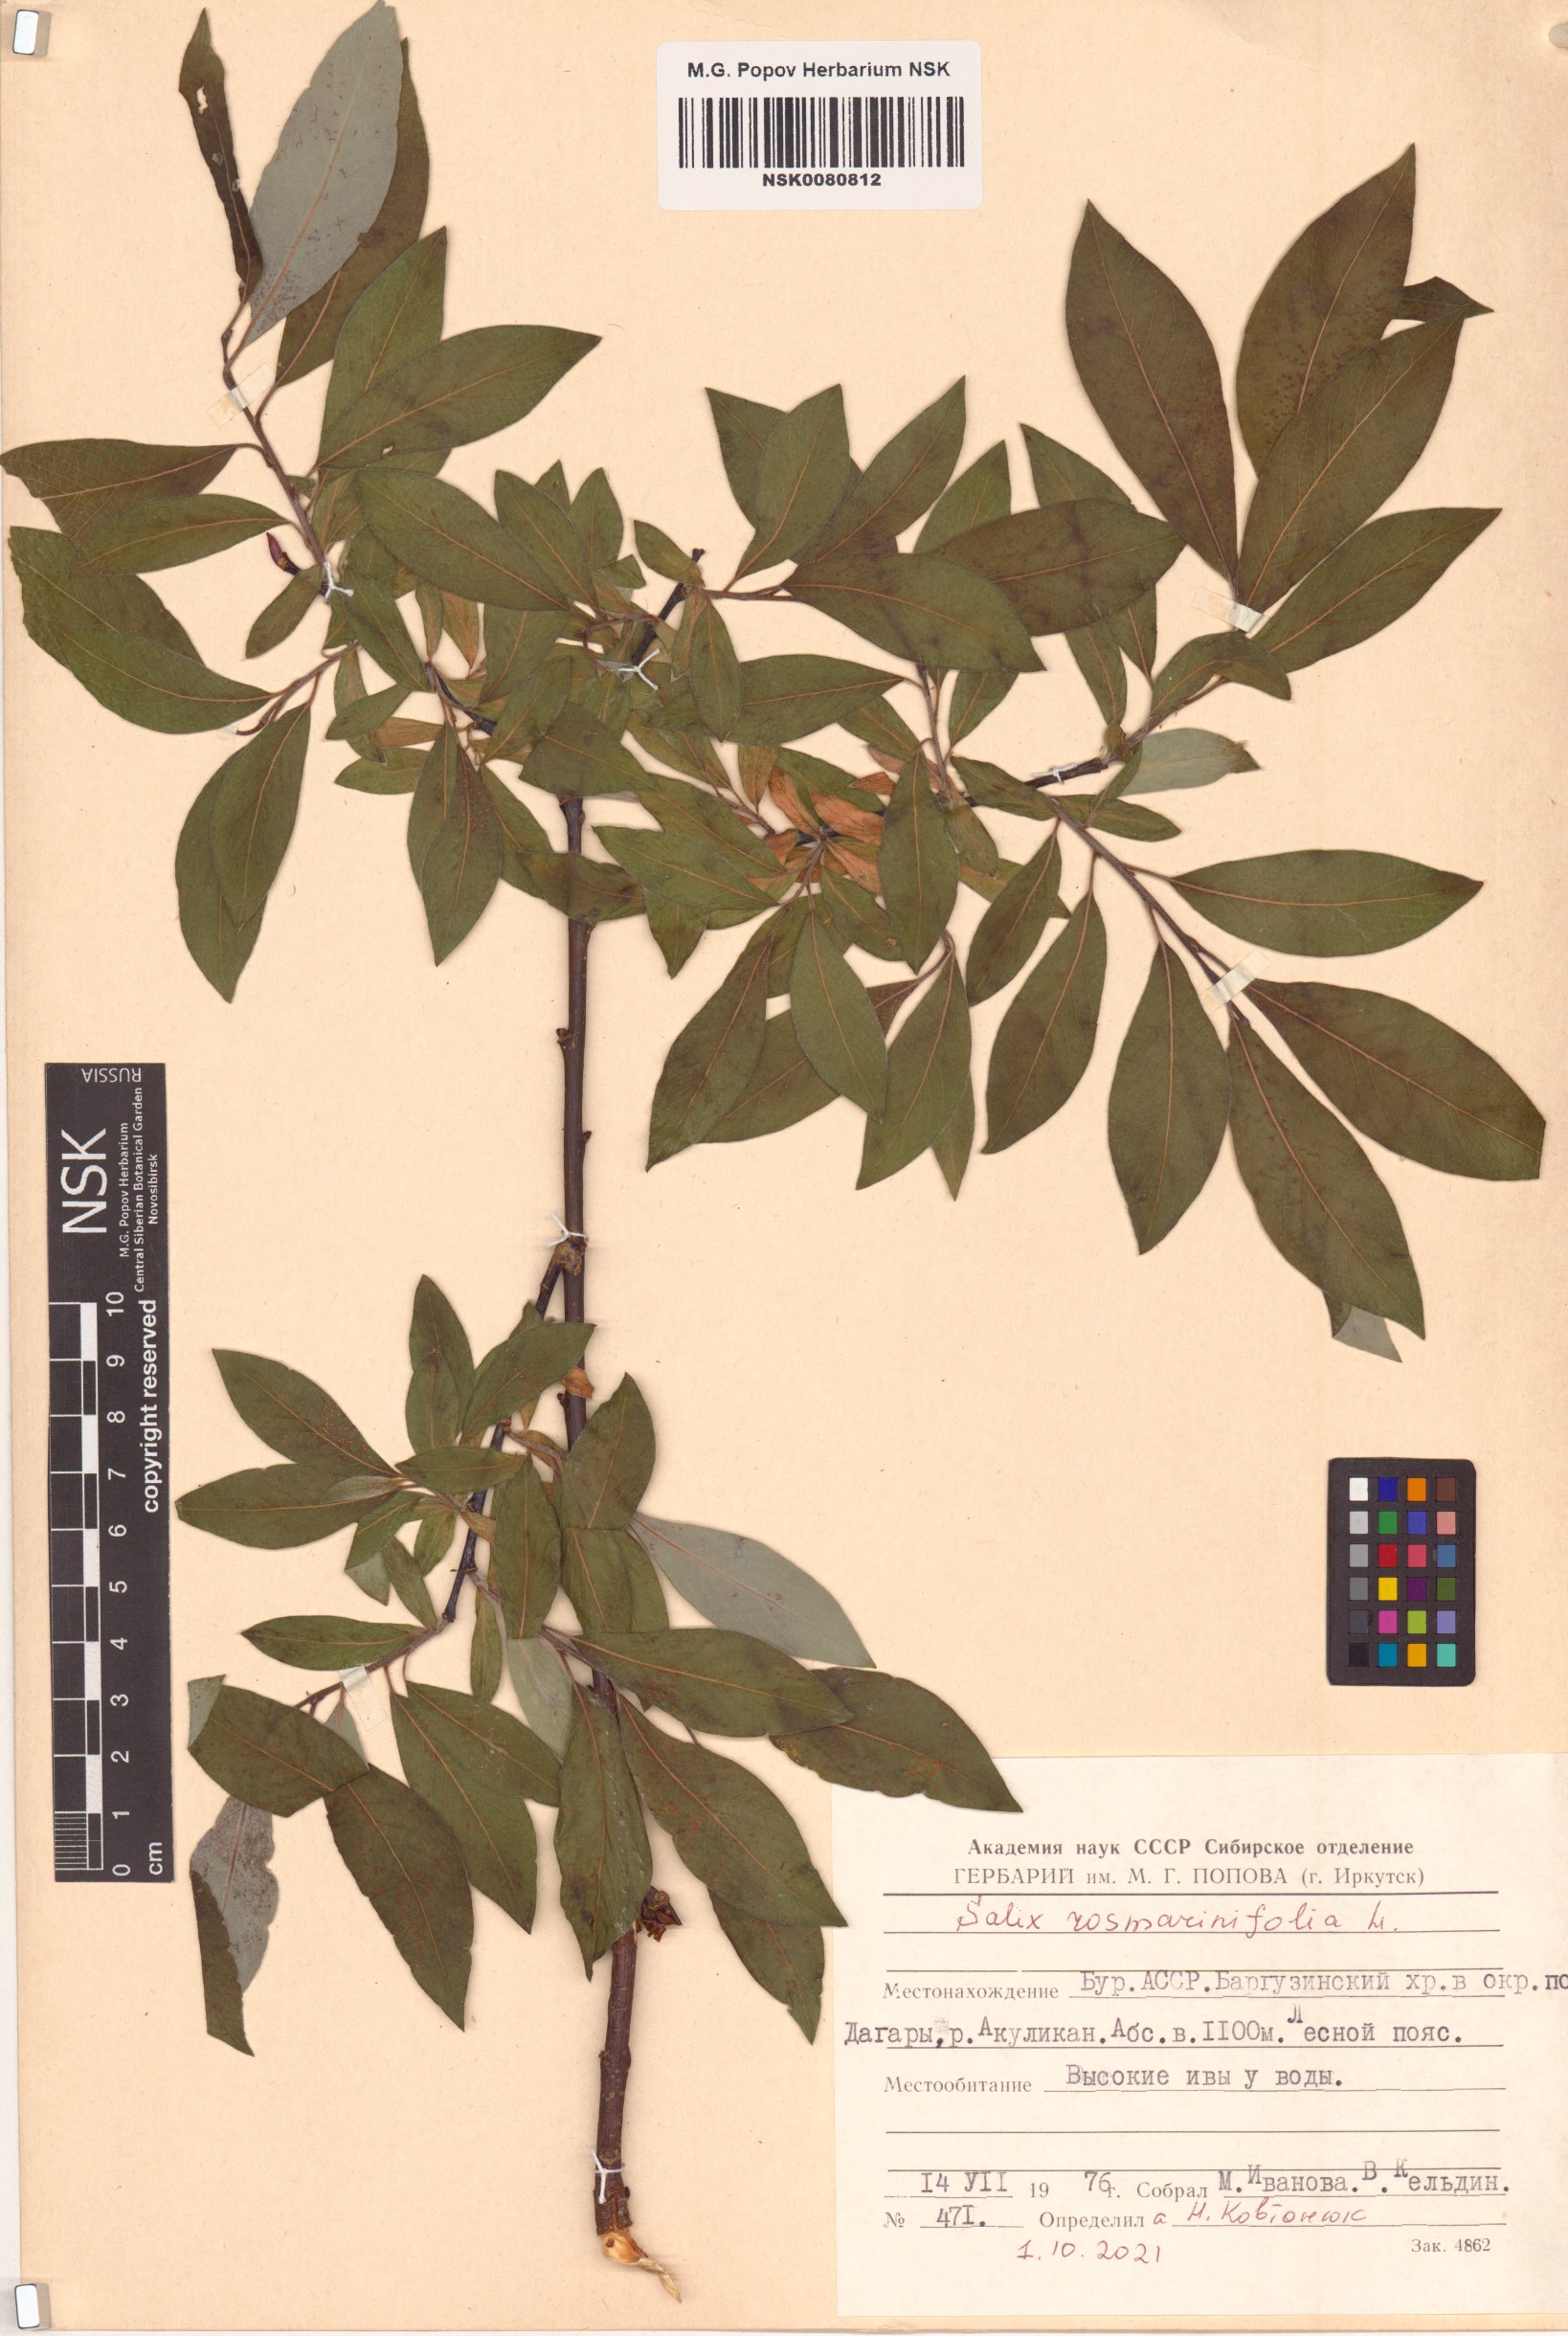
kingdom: Plantae
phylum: Tracheophyta
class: Magnoliopsida
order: Malpighiales
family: Salicaceae
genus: Salix
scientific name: Salix rosmarinifolia
